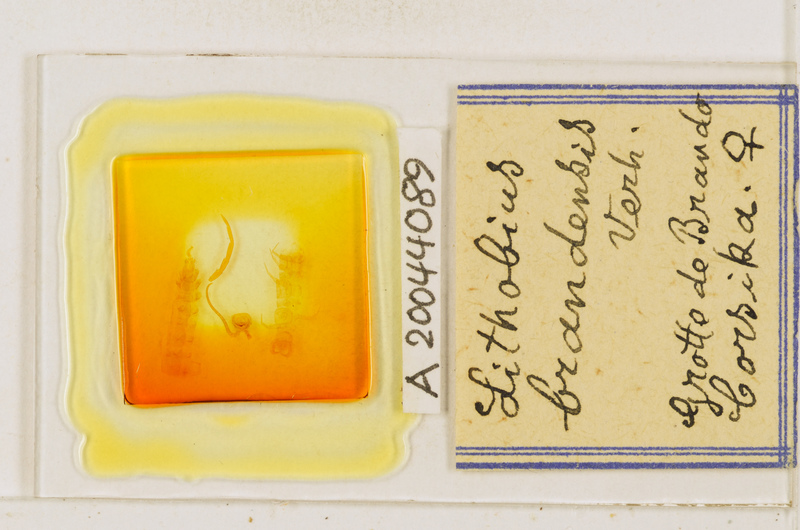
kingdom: Animalia
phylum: Arthropoda
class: Chilopoda
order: Lithobiomorpha
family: Lithobiidae
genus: Lithobius
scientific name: Lithobius brandensis
